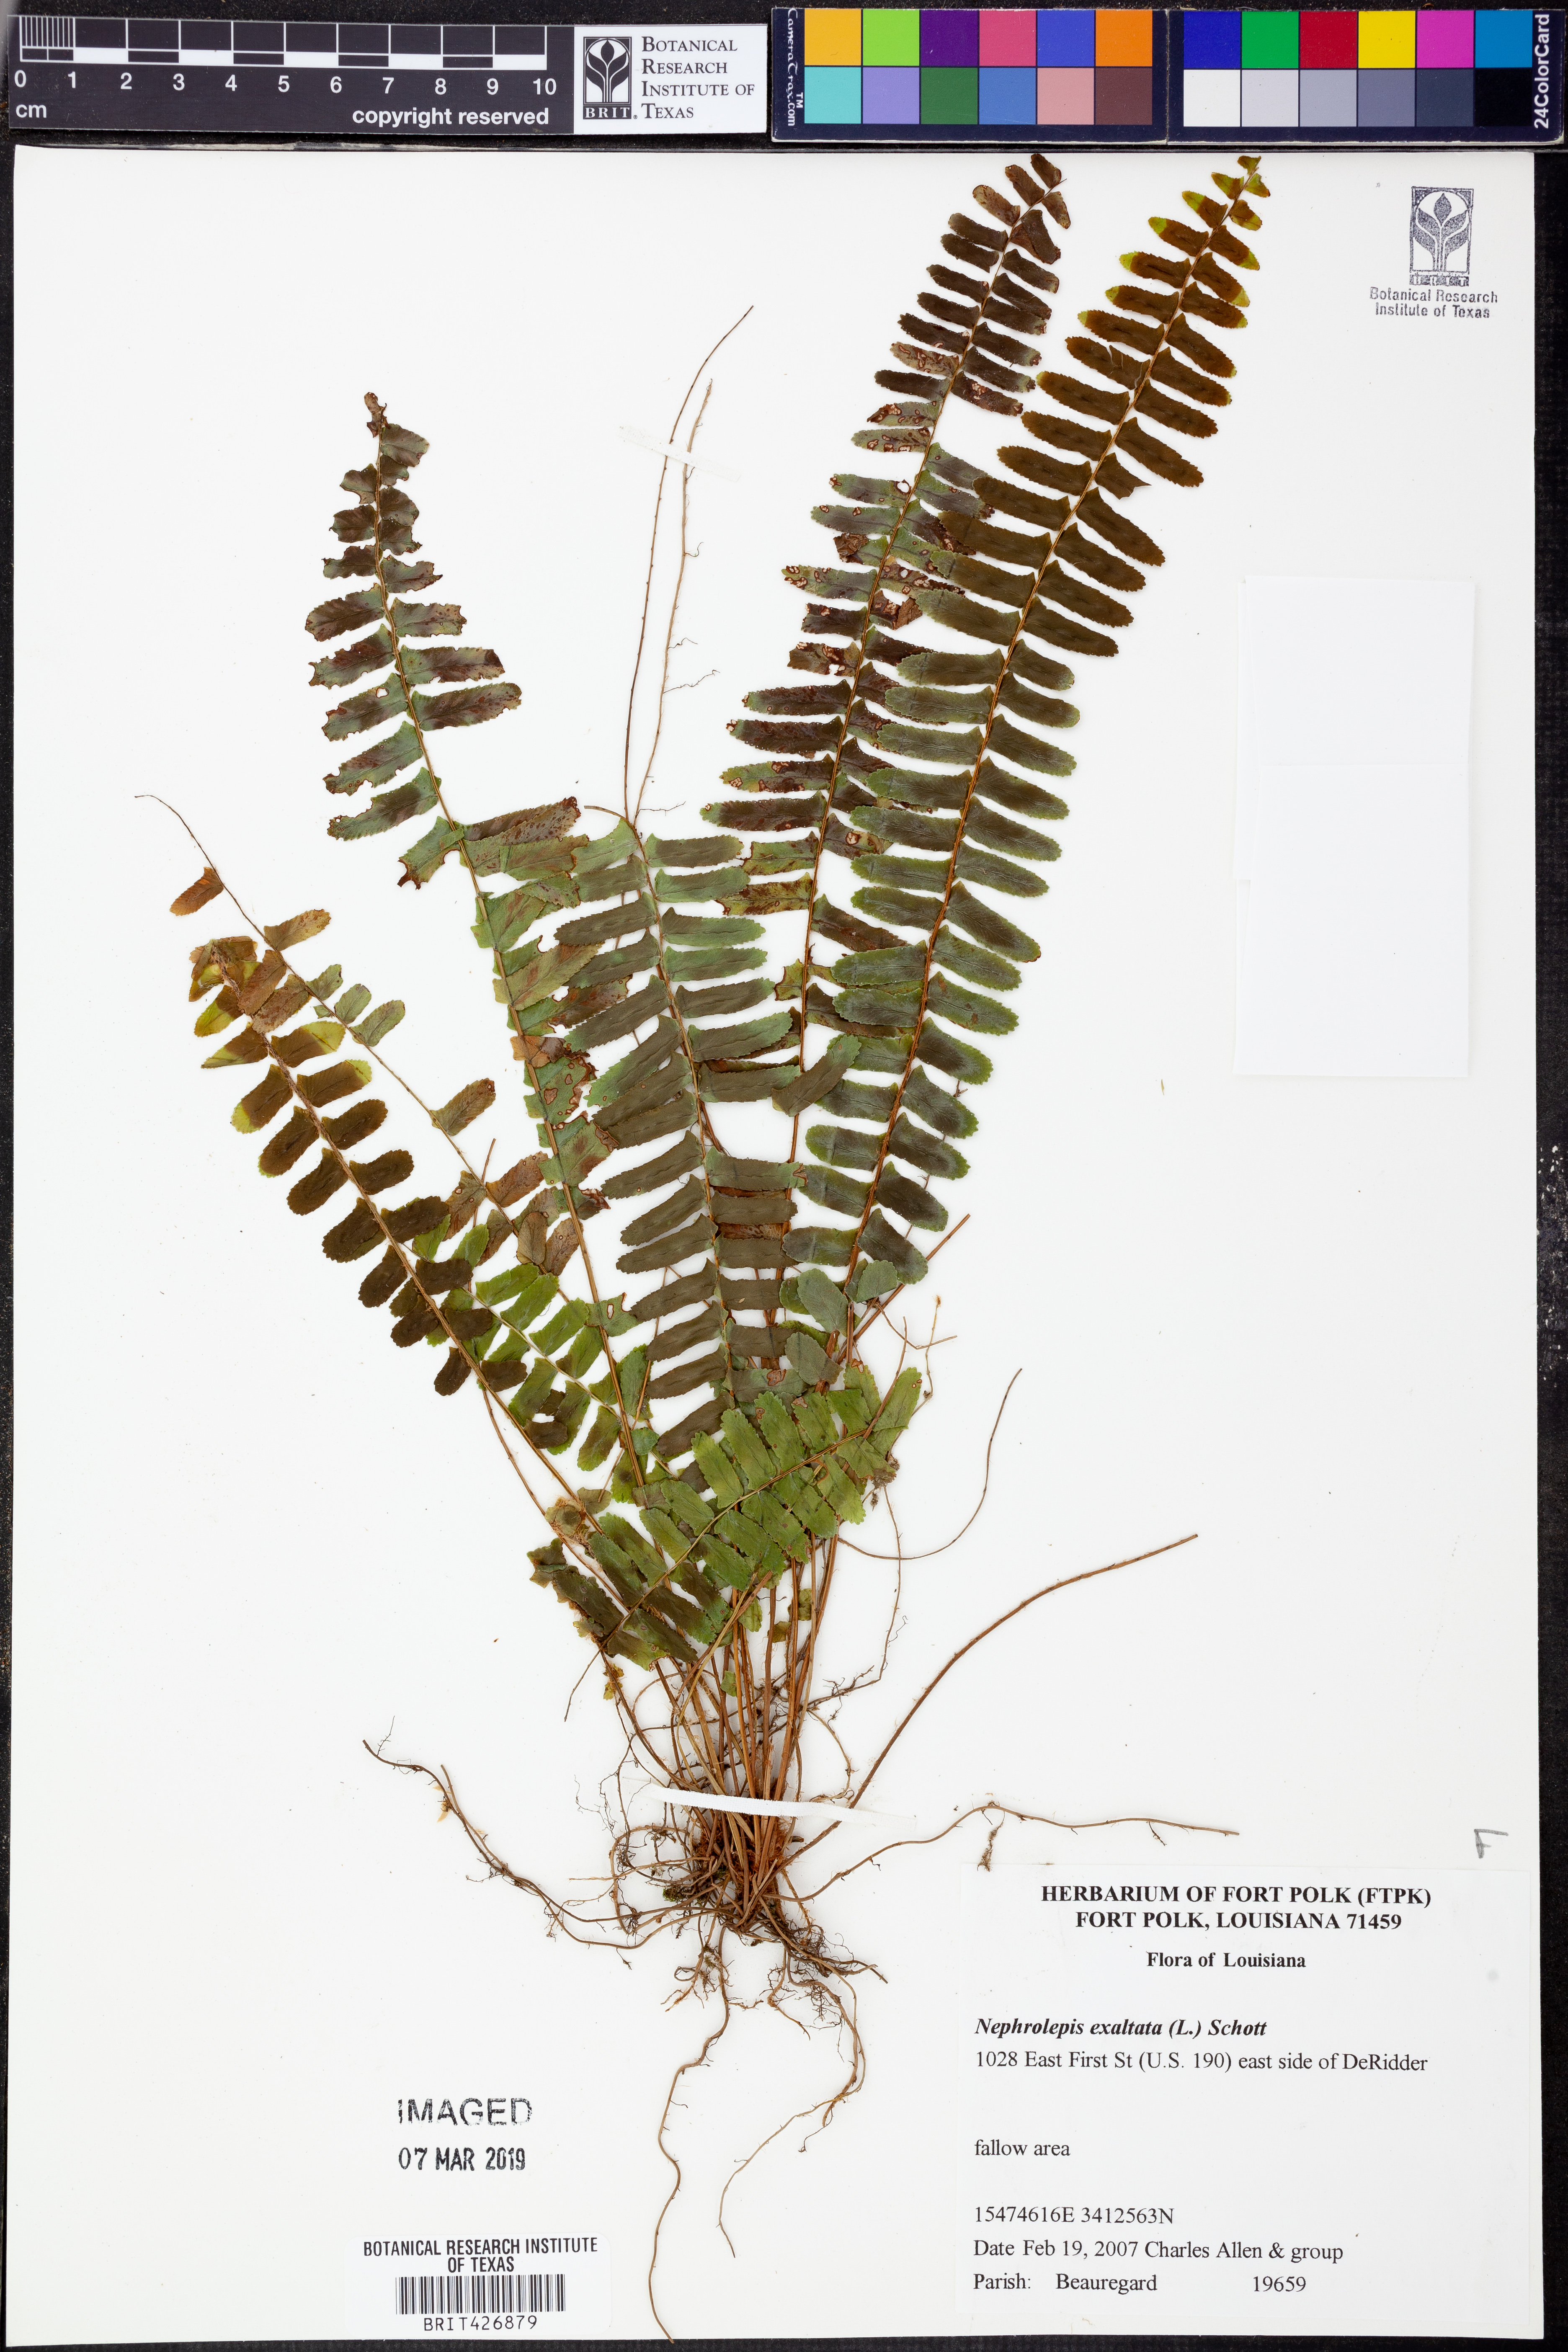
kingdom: Plantae
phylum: Tracheophyta
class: Polypodiopsida
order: Polypodiales
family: Nephrolepidaceae
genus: Nephrolepis
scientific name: Nephrolepis exaltata
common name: Sword fern
